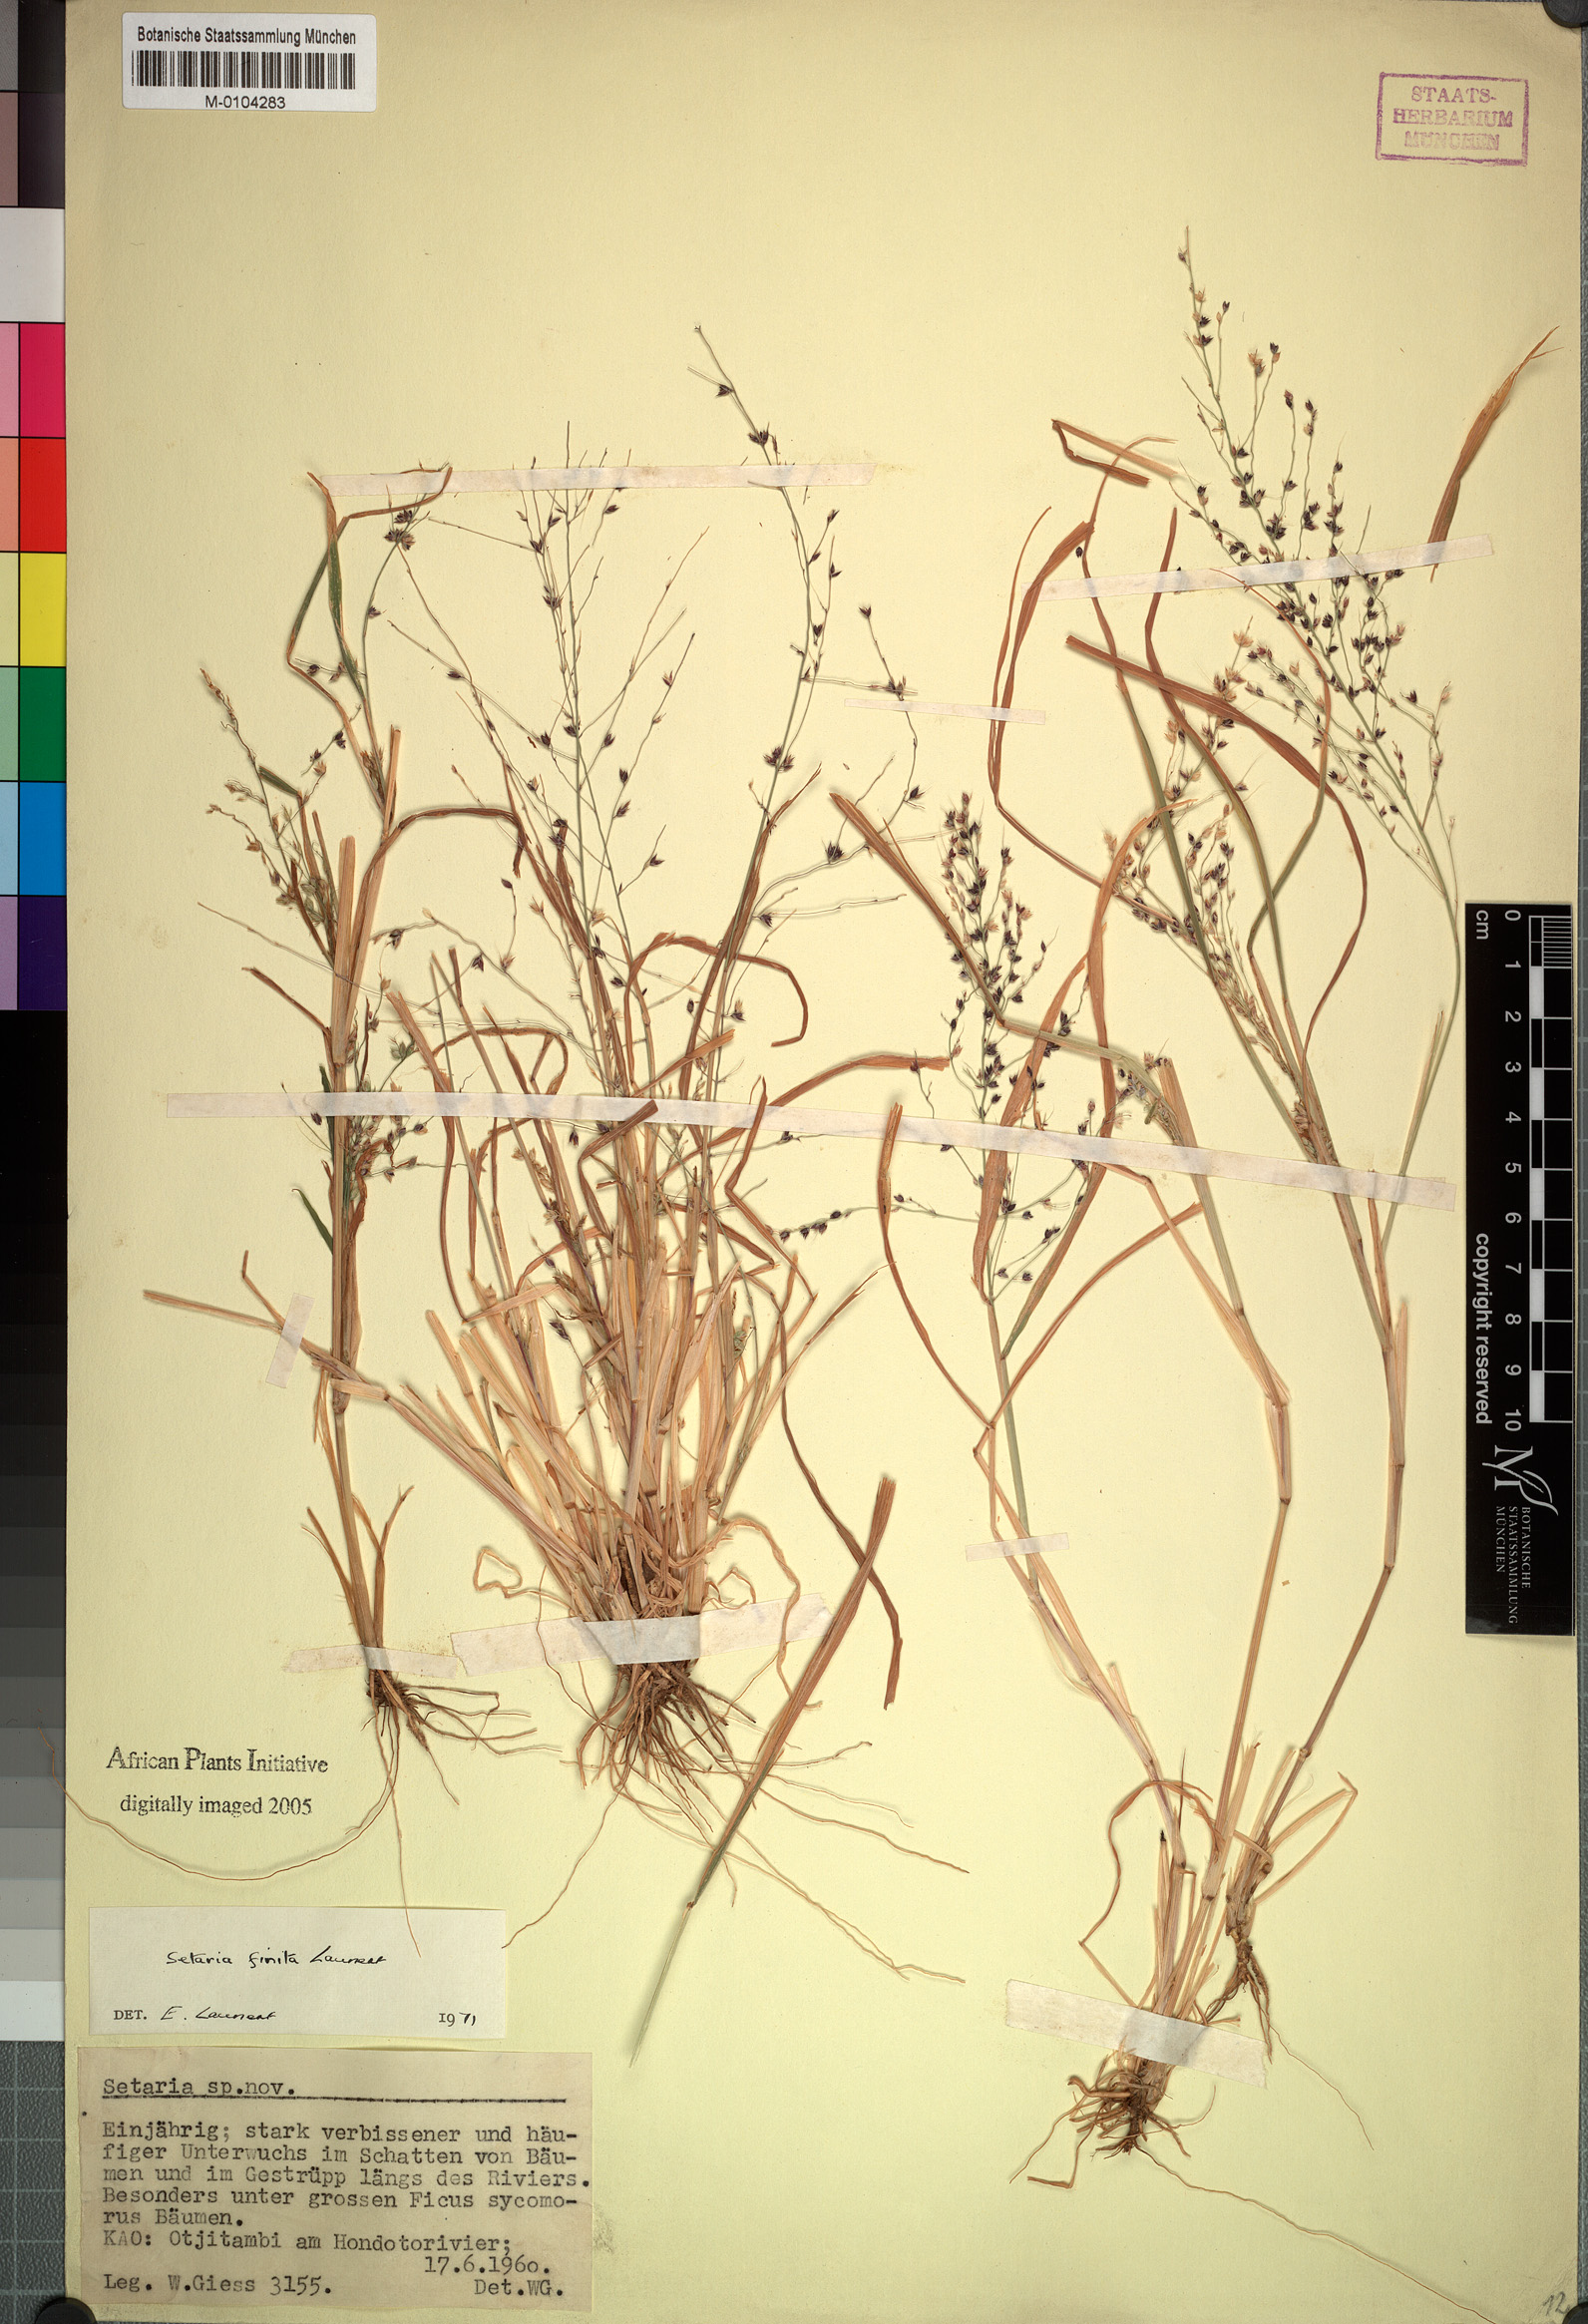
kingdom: Plantae
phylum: Tracheophyta
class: Liliopsida
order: Poales
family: Poaceae
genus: Setaria
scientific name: Setaria finita
